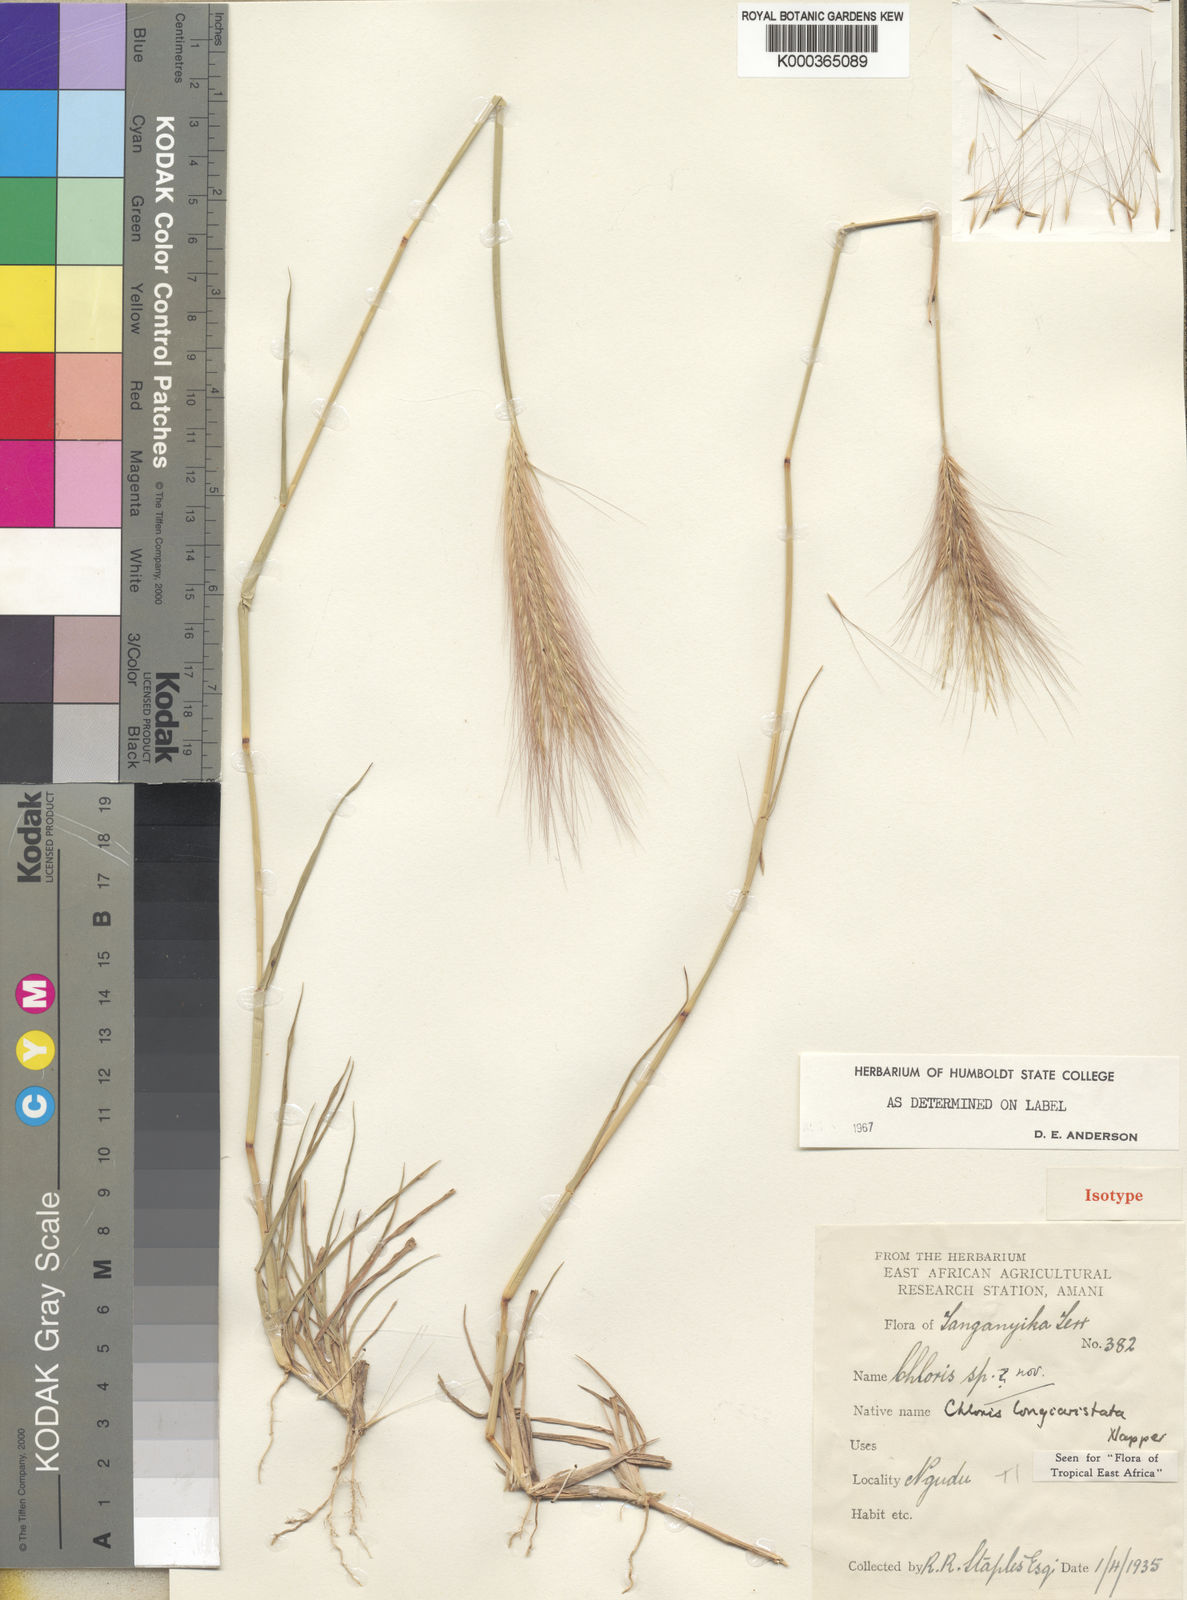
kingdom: Plantae
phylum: Tracheophyta
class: Liliopsida
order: Poales
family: Poaceae
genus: Enteropogon
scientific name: Enteropogon longiaristatus
